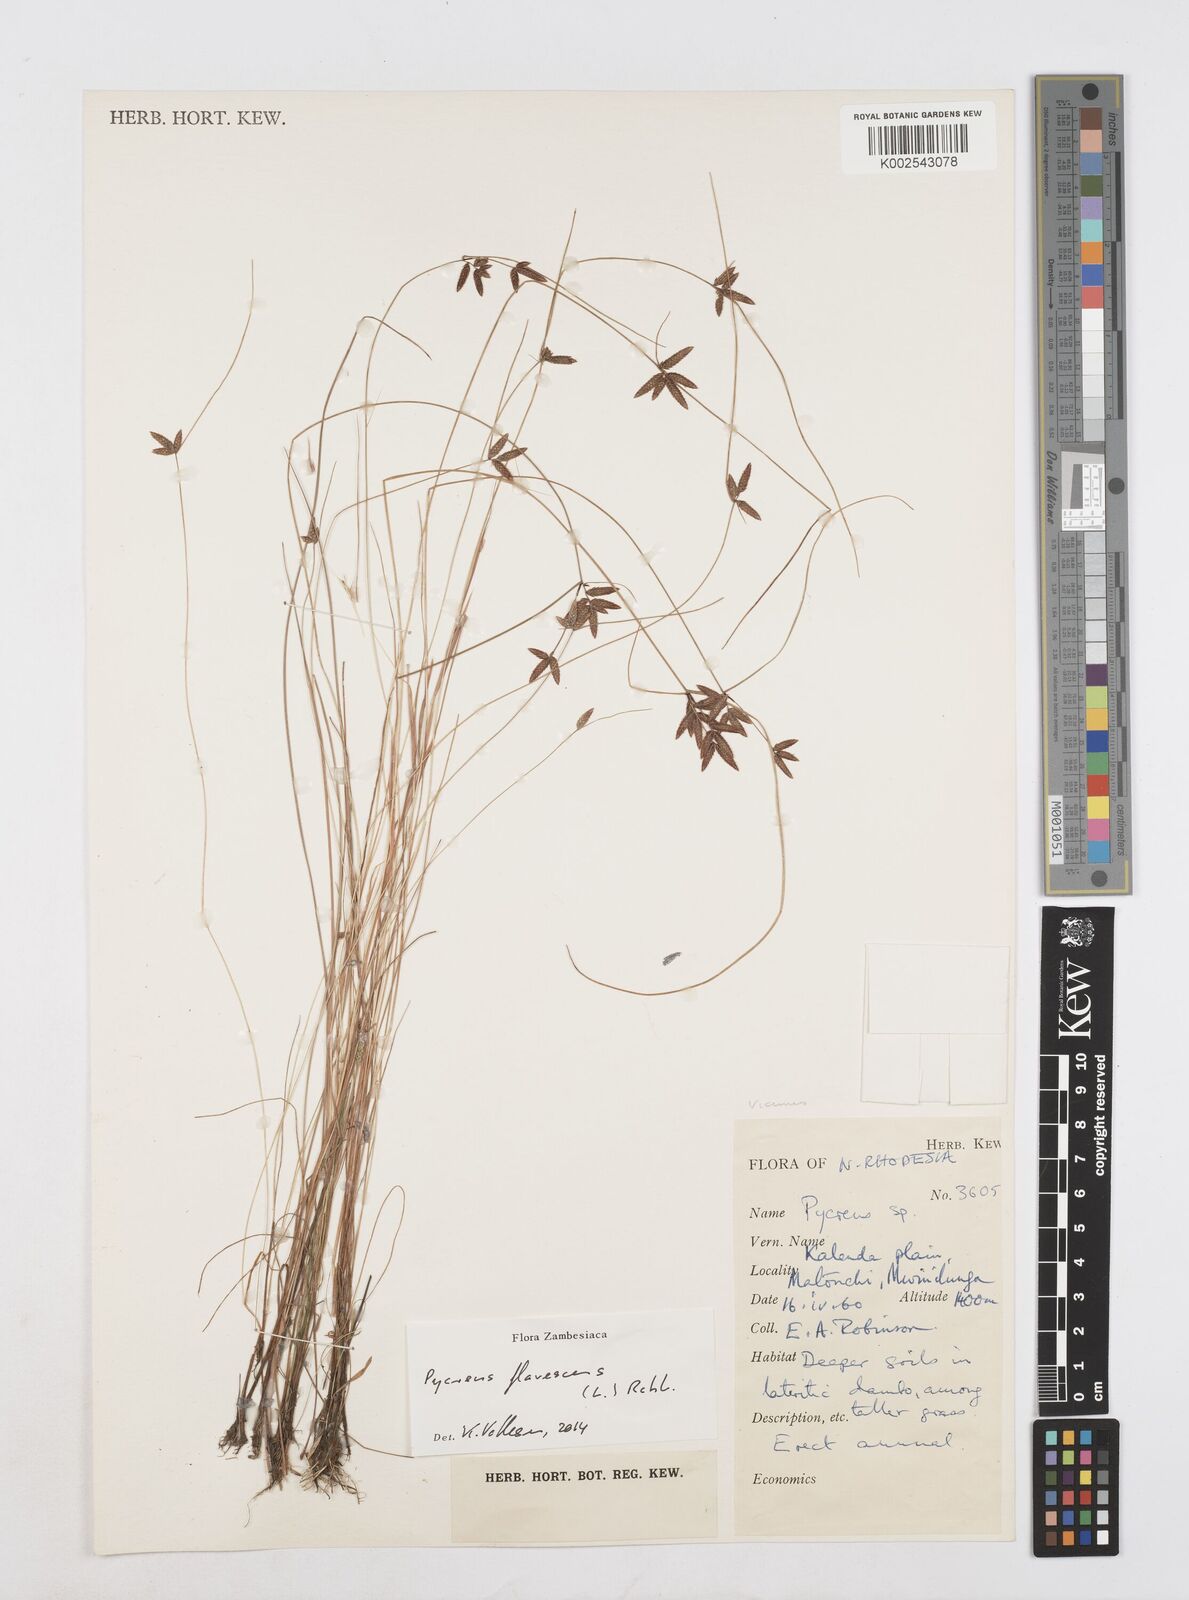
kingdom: Plantae
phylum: Tracheophyta
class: Liliopsida
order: Poales
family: Cyperaceae
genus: Cyperus
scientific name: Cyperus flavescens
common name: Yellow galingale
